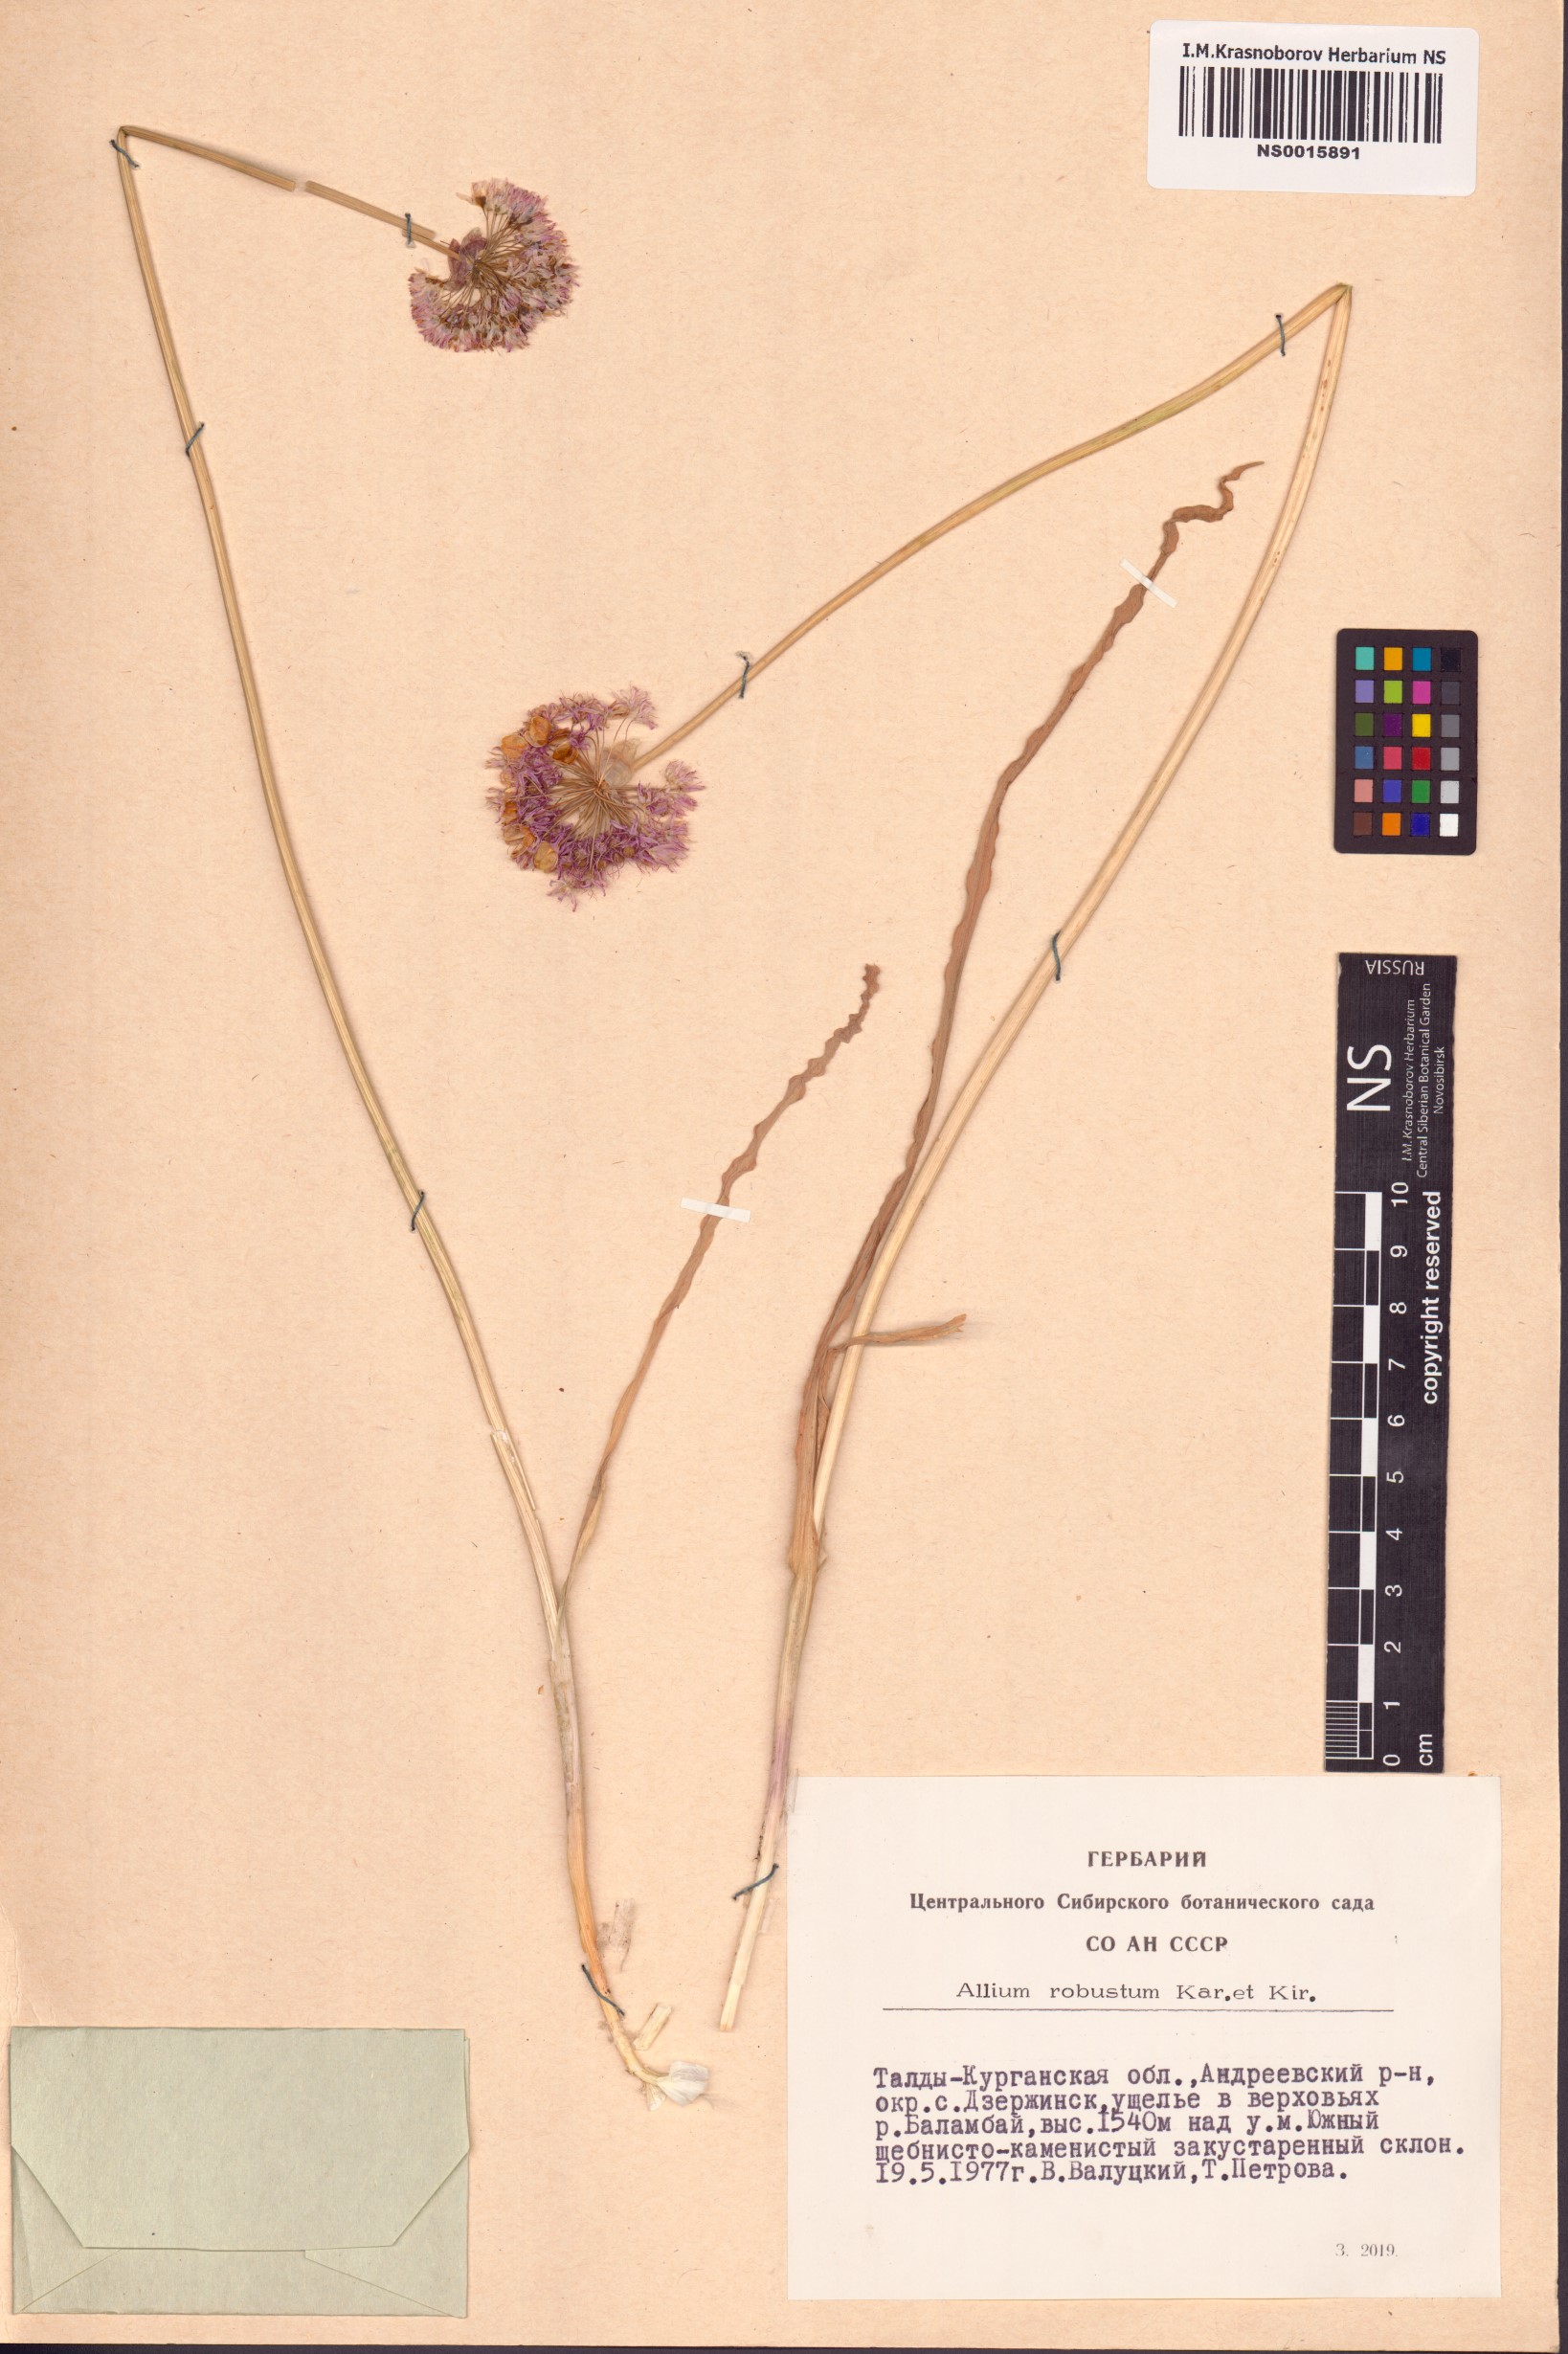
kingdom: Plantae
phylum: Tracheophyta
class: Liliopsida
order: Asparagales
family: Amaryllidaceae
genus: Allium
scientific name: Allium robustum
